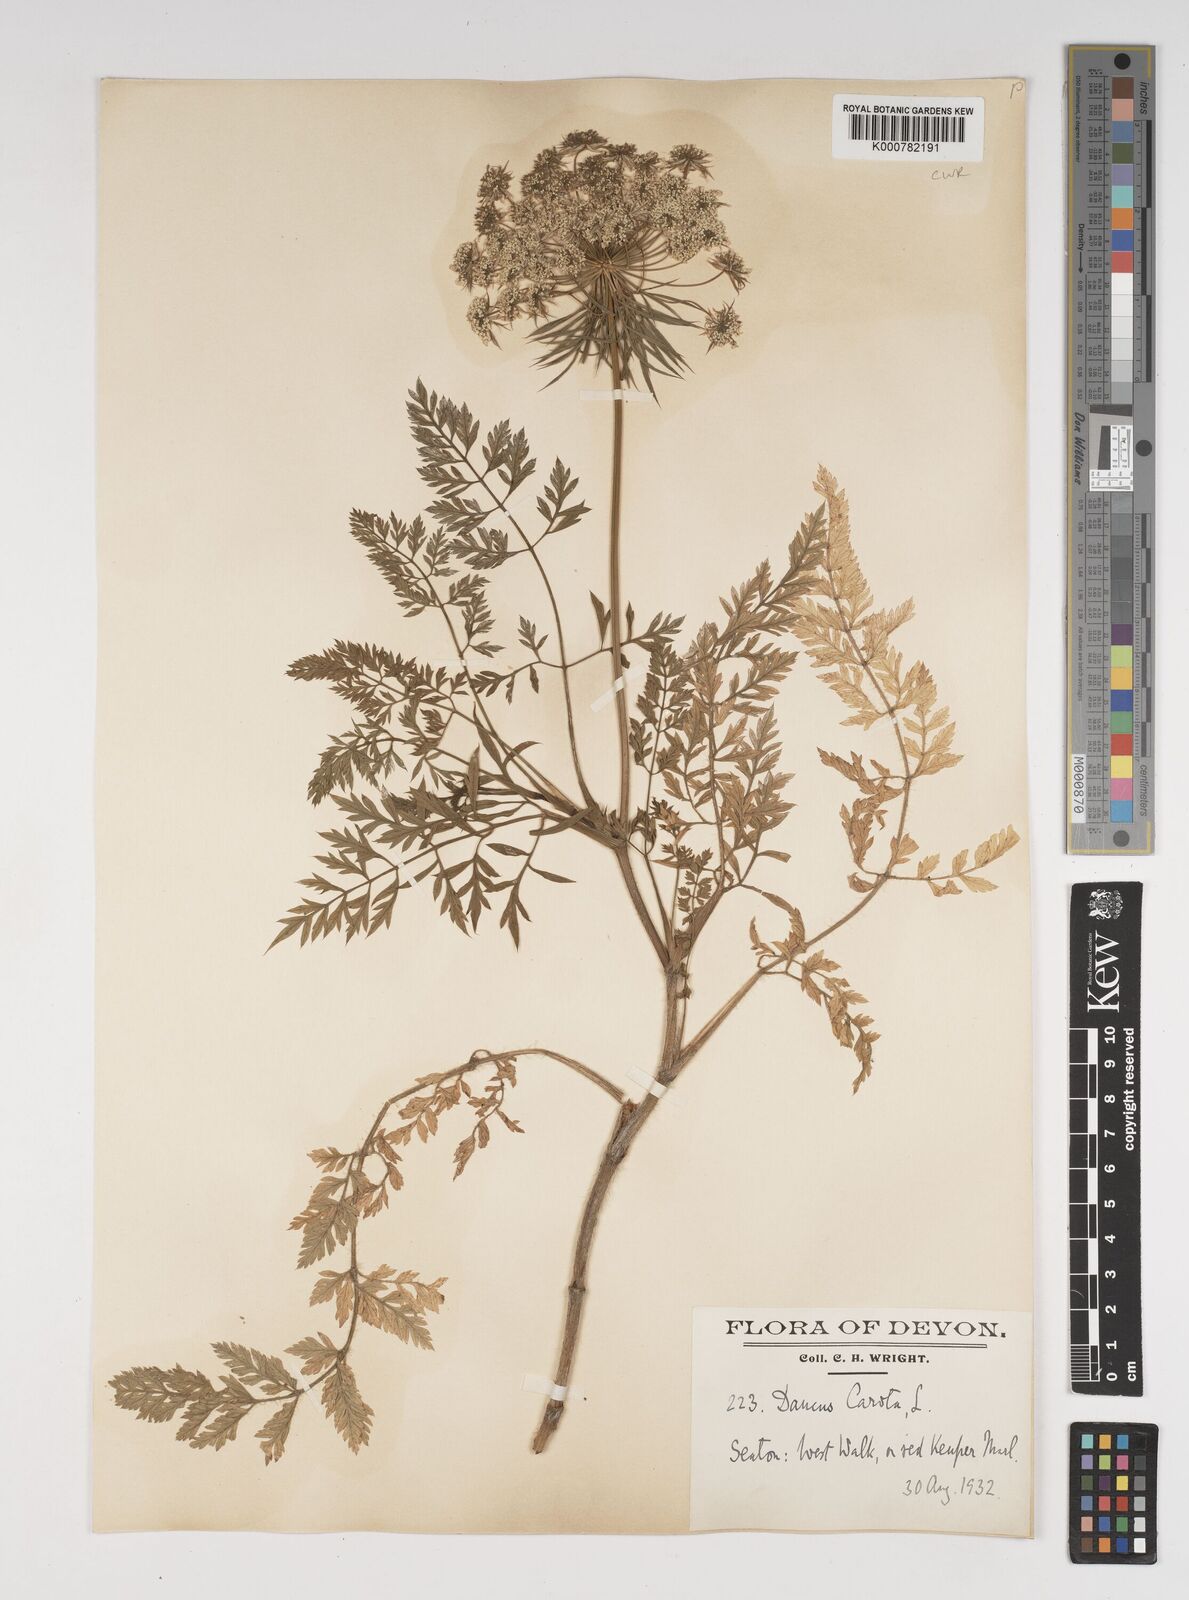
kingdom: Plantae
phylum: Tracheophyta
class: Magnoliopsida
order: Apiales
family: Apiaceae
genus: Daucus
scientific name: Daucus carota
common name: Wild carrot
